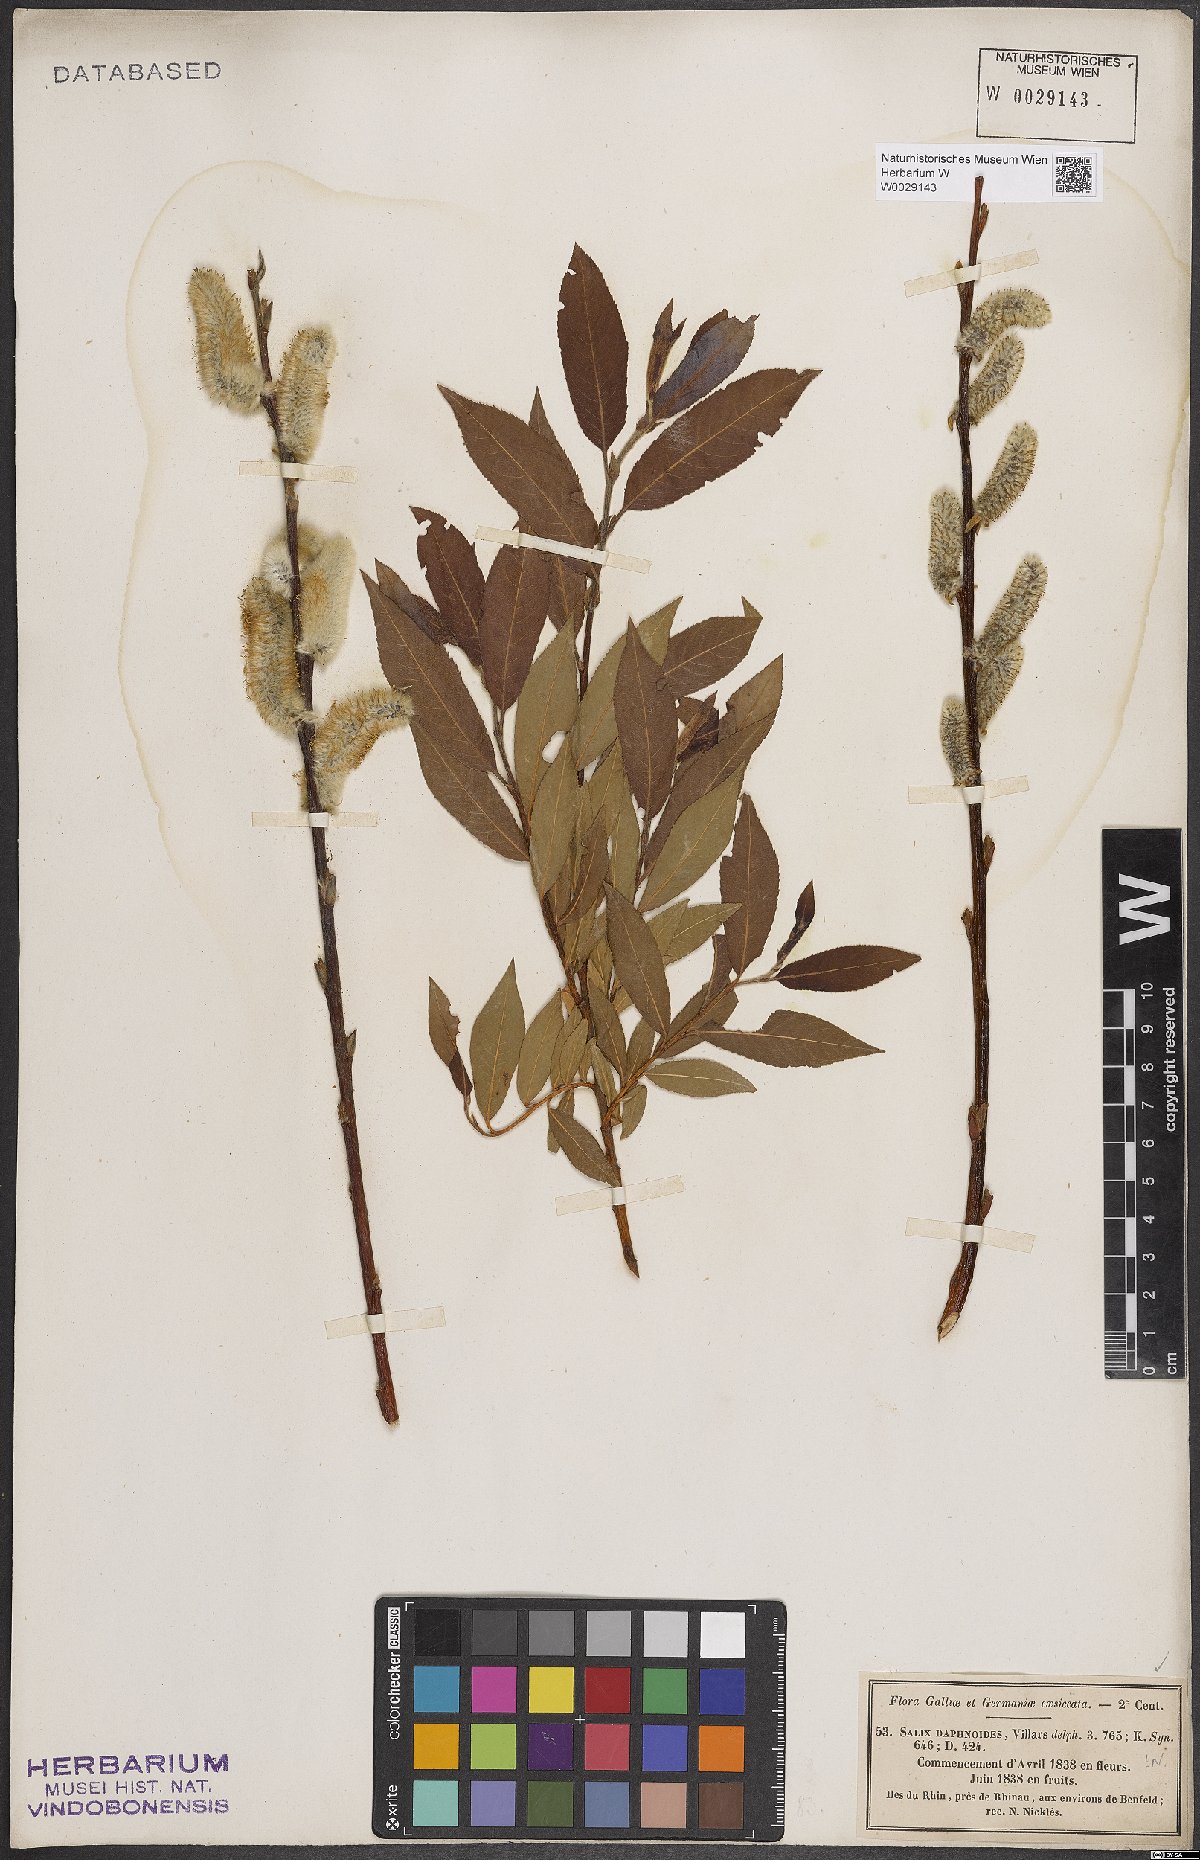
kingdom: Plantae
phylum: Tracheophyta
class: Magnoliopsida
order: Malpighiales
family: Salicaceae
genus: Salix
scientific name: Salix daphnoides
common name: European violet-willow
